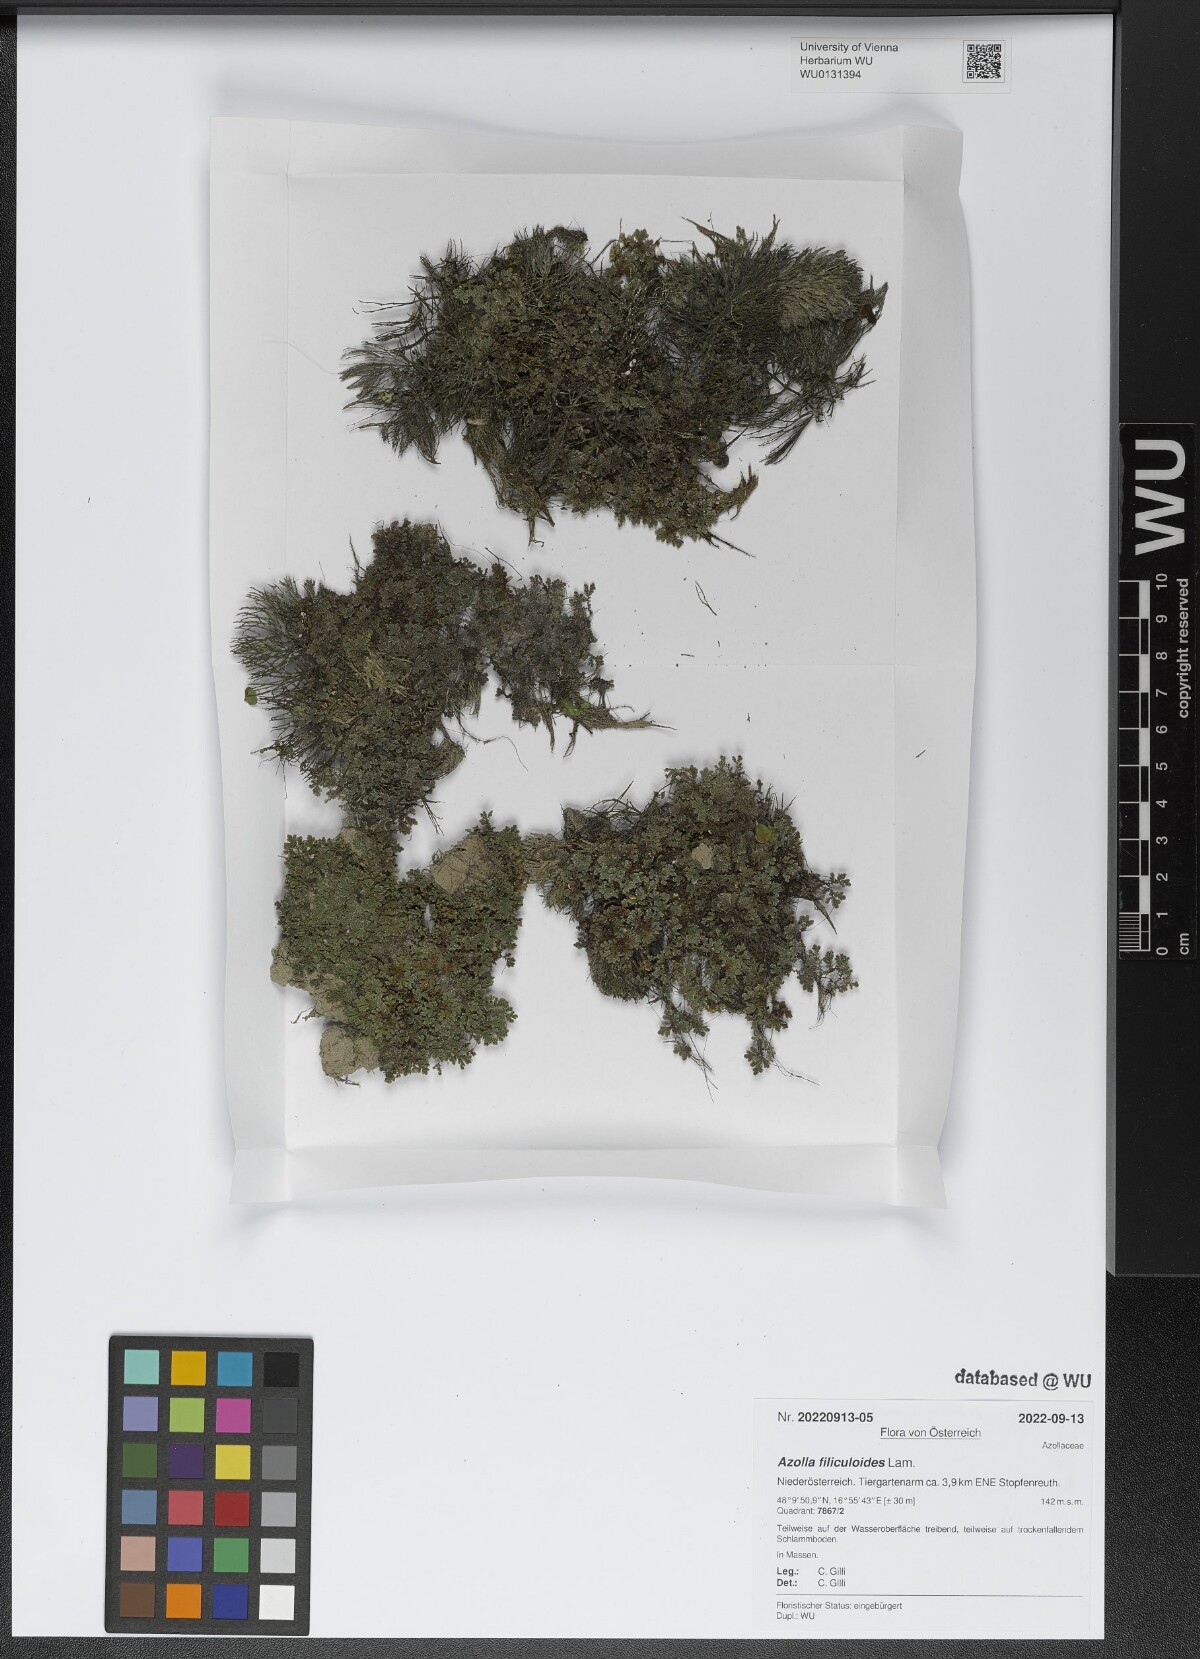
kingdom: Plantae
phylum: Tracheophyta
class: Polypodiopsida
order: Salviniales
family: Salviniaceae
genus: Azolla
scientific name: Azolla filiculoides
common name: Water fern
